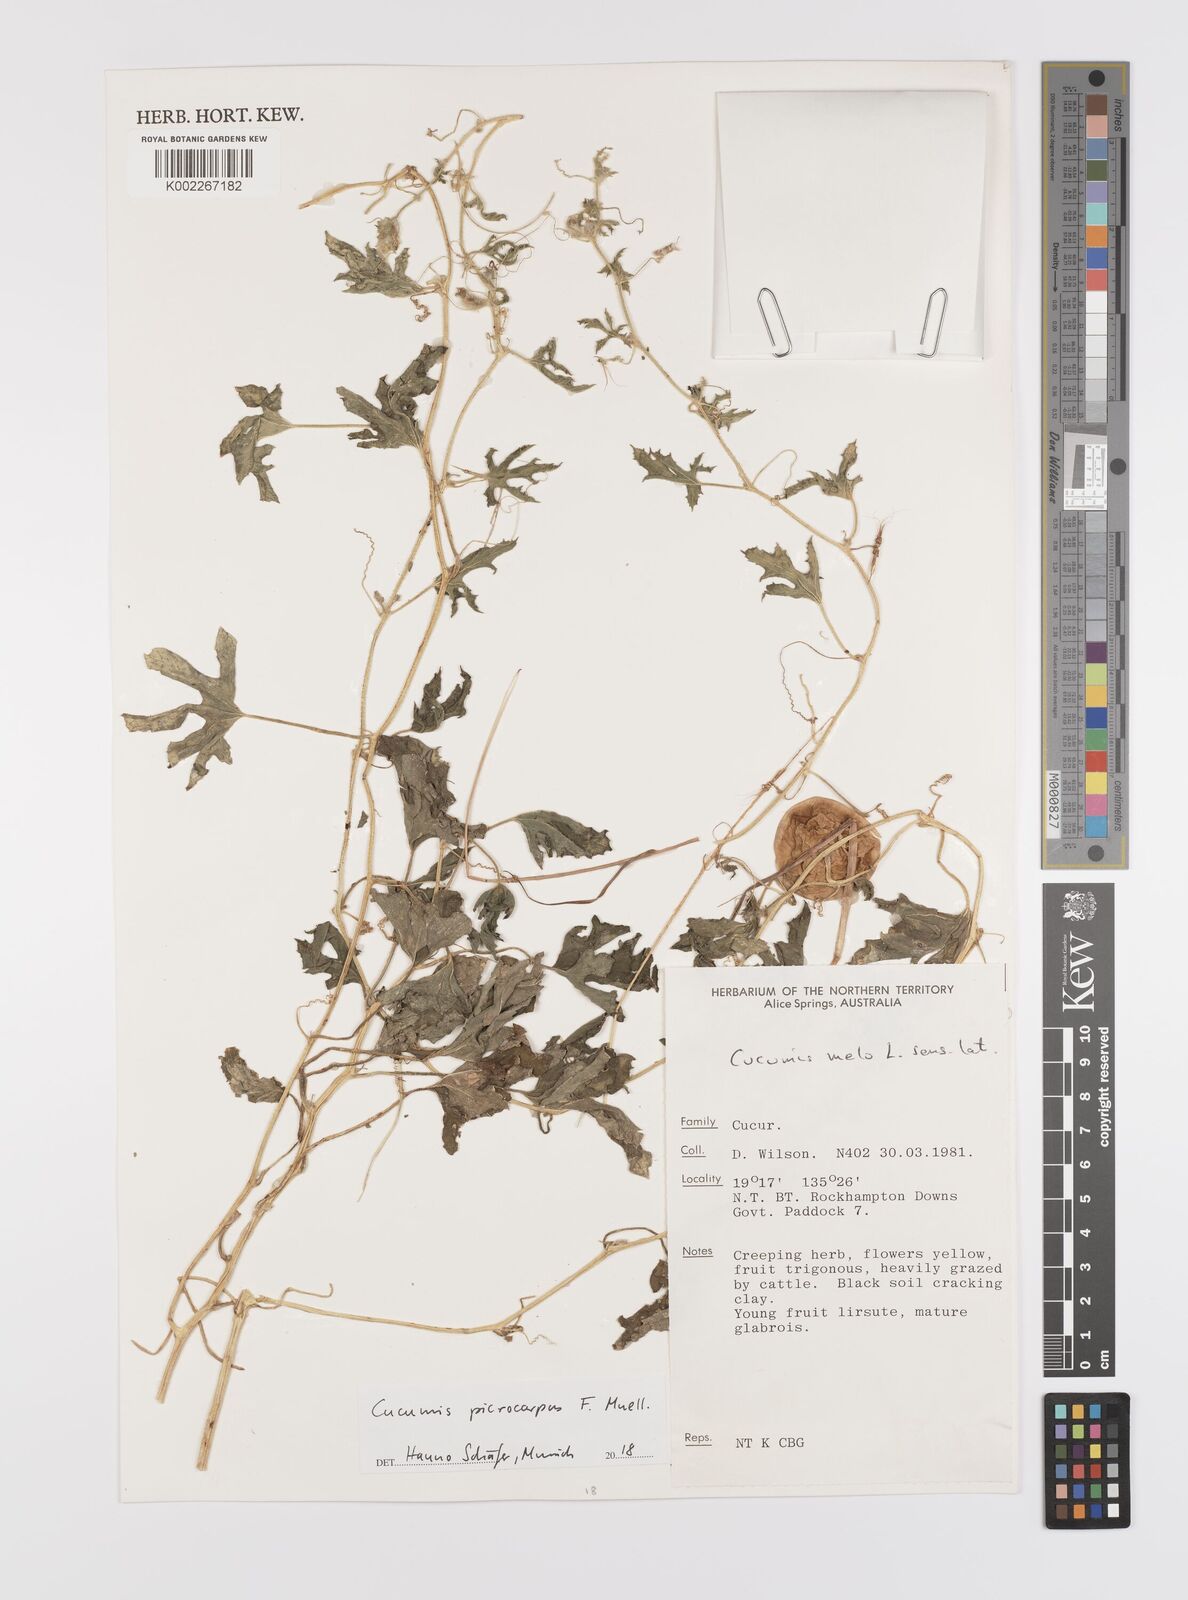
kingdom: Plantae
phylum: Tracheophyta
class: Magnoliopsida
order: Cucurbitales
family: Cucurbitaceae
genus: Cucumis
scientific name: Cucumis melo
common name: Melon
